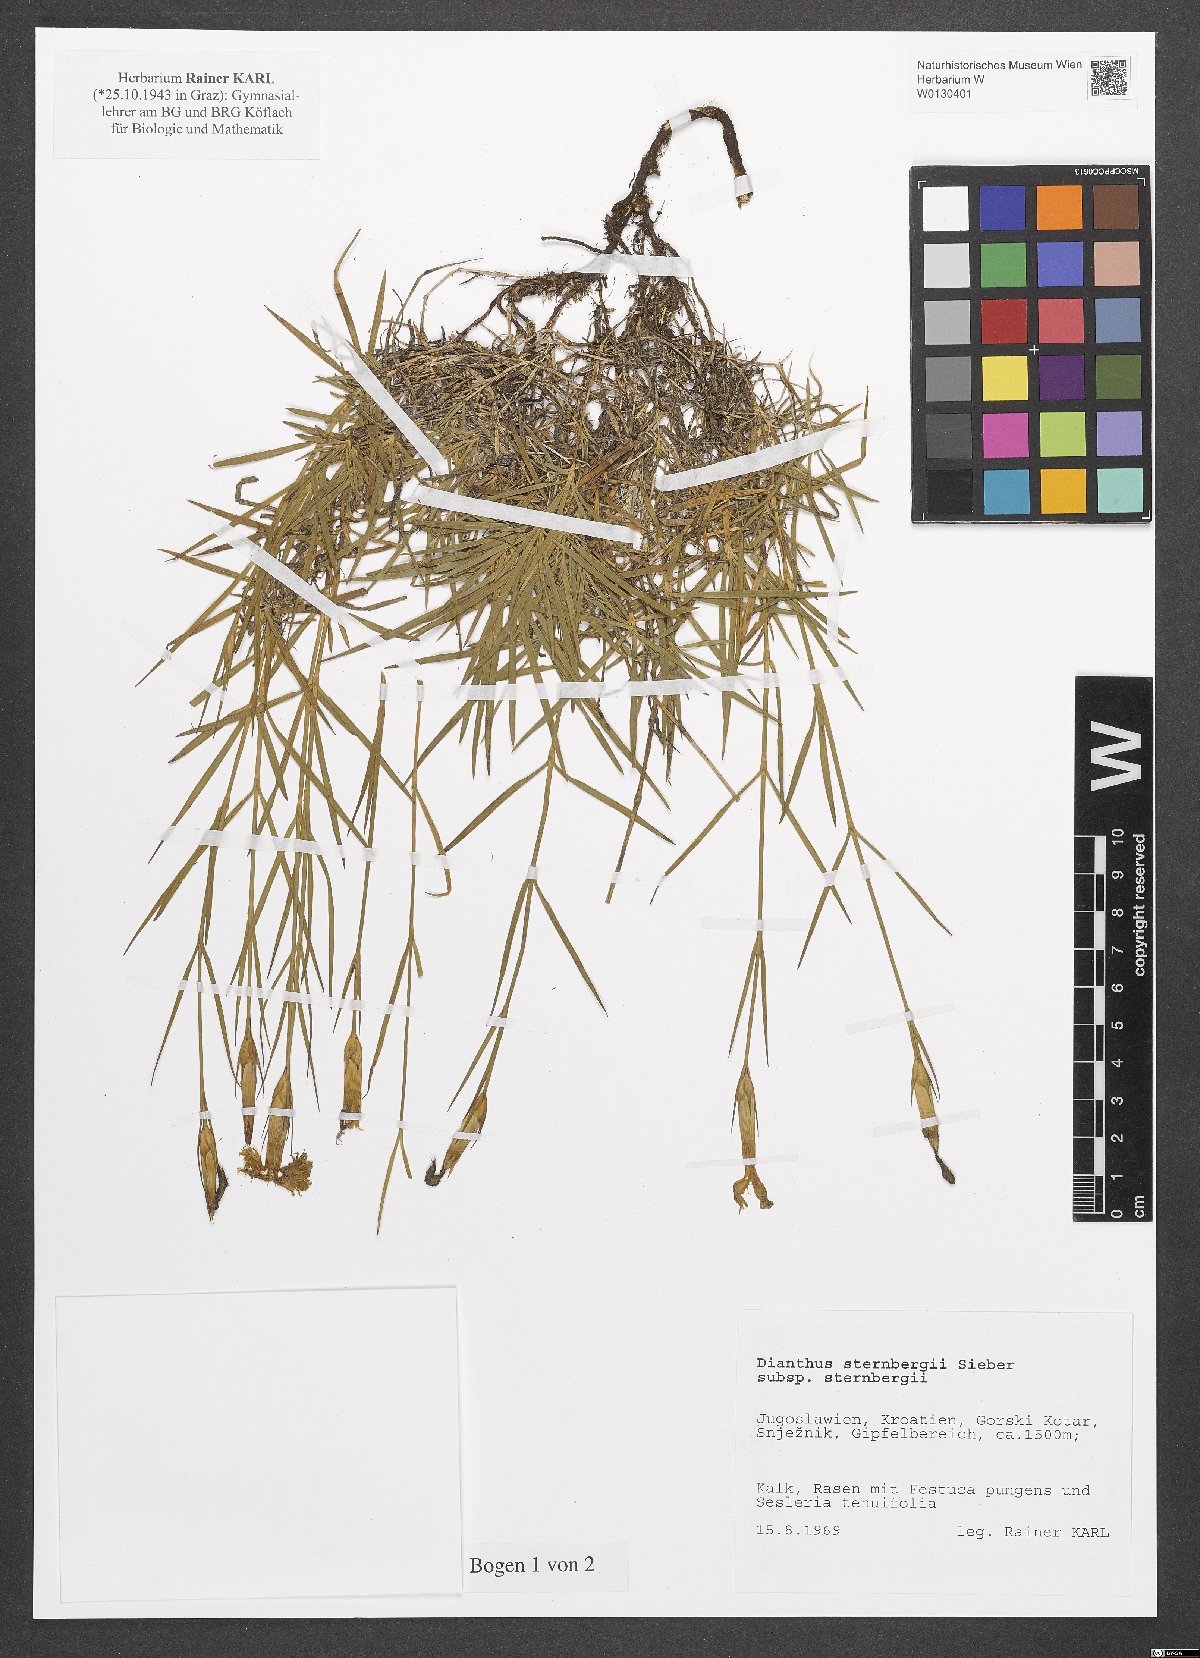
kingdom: Plantae
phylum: Tracheophyta
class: Magnoliopsida
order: Caryophyllales
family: Caryophyllaceae
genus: Dianthus
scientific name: Dianthus sternbergii
